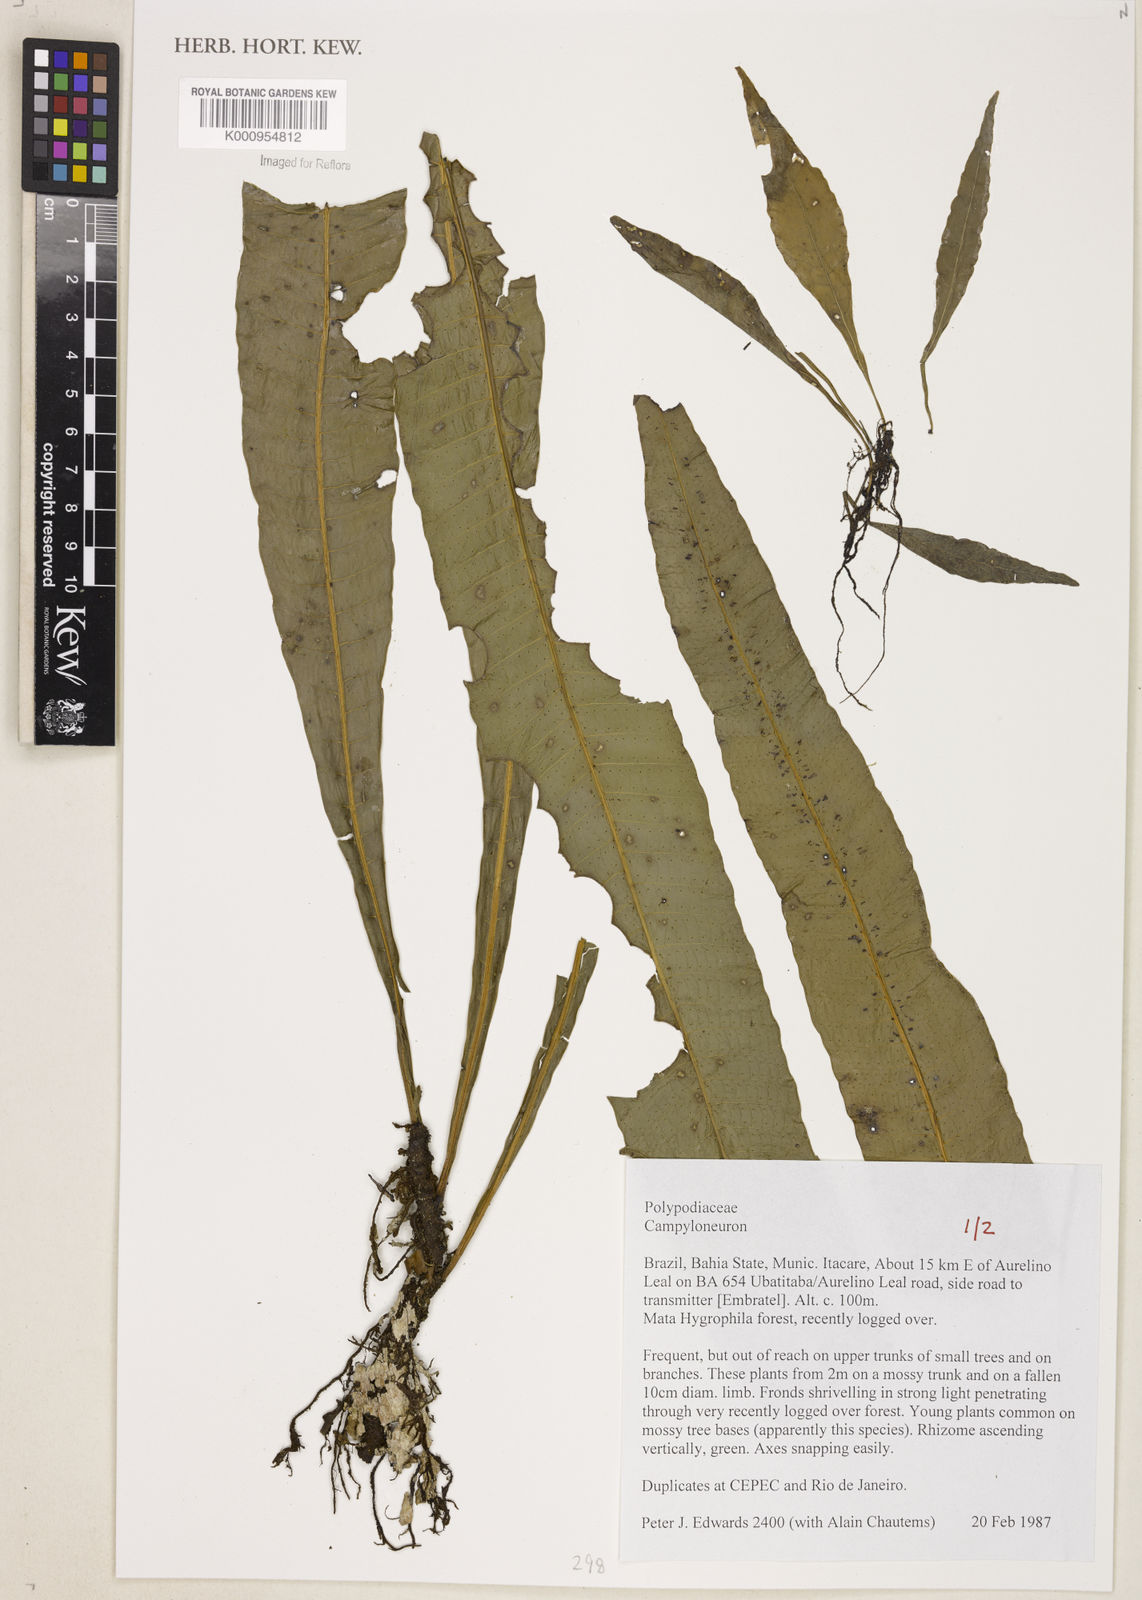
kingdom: Plantae
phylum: Tracheophyta
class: Polypodiopsida
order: Polypodiales
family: Polypodiaceae
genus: Campyloneurum
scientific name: Campyloneurum
